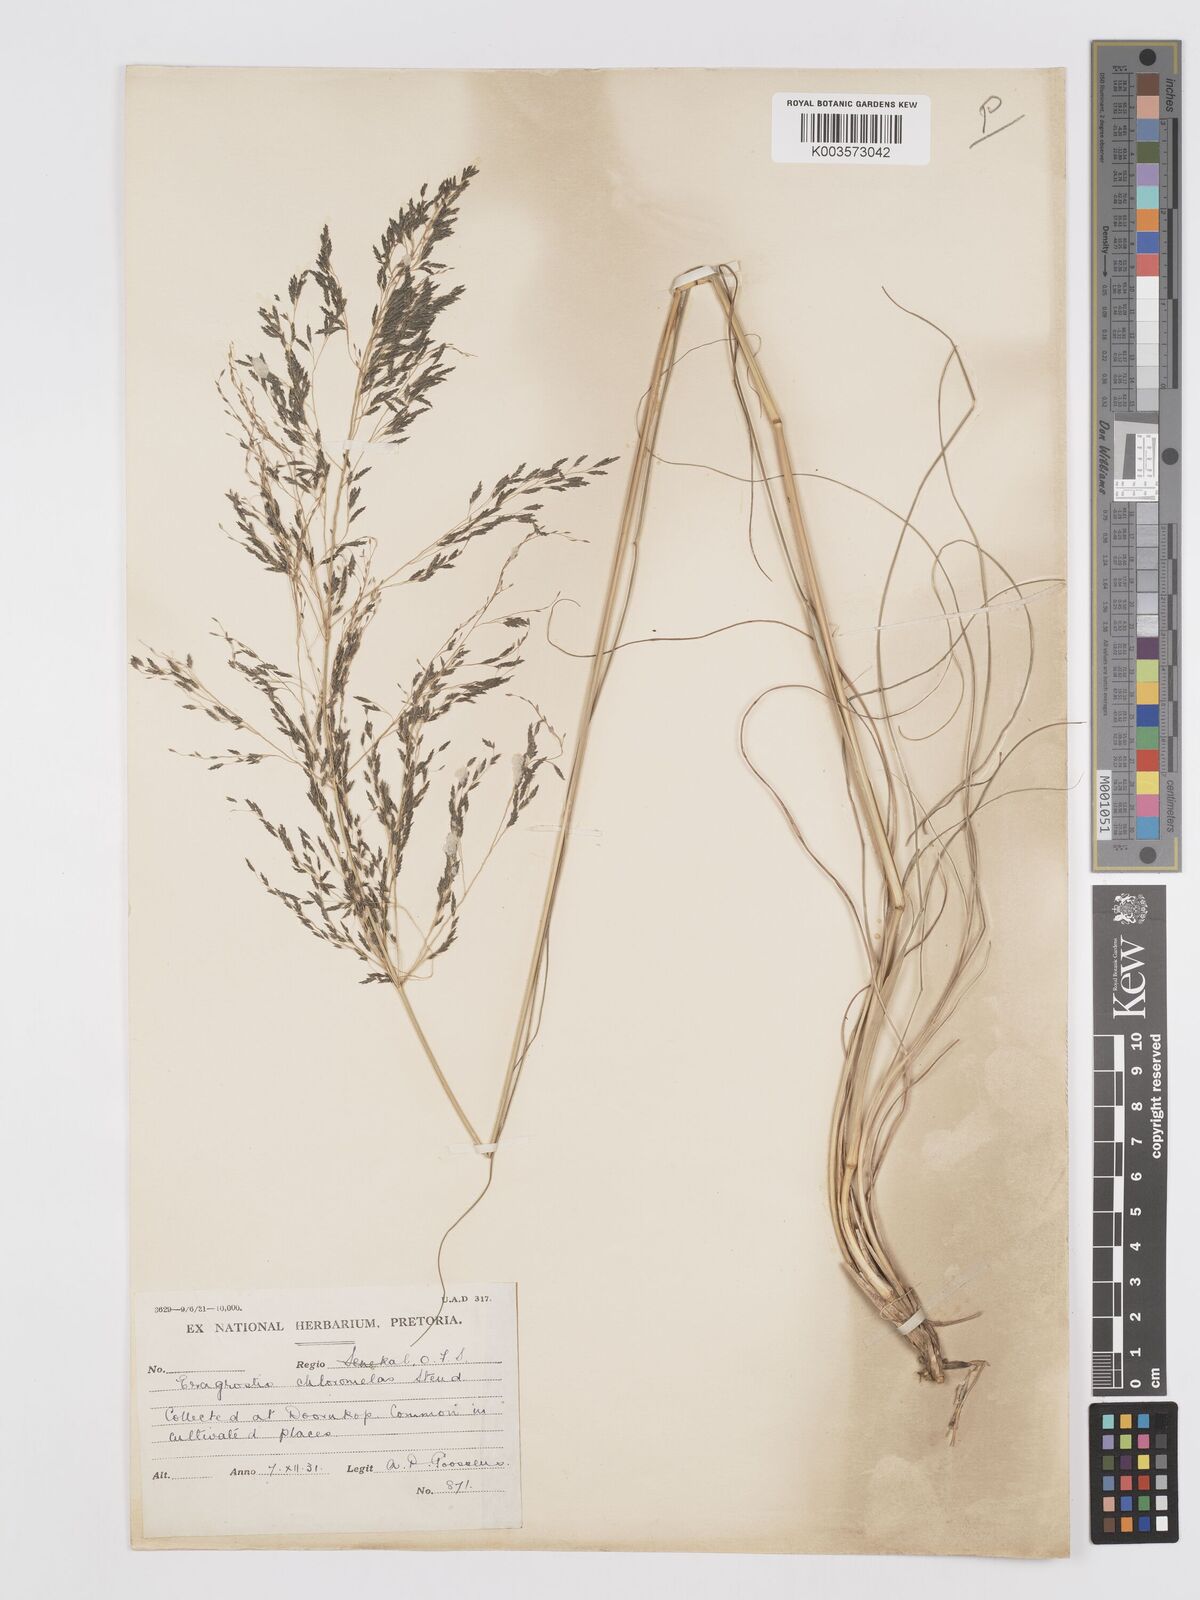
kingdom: Plantae
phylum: Tracheophyta
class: Liliopsida
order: Poales
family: Poaceae
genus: Eragrostis
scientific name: Eragrostis curvula
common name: African love-grass
